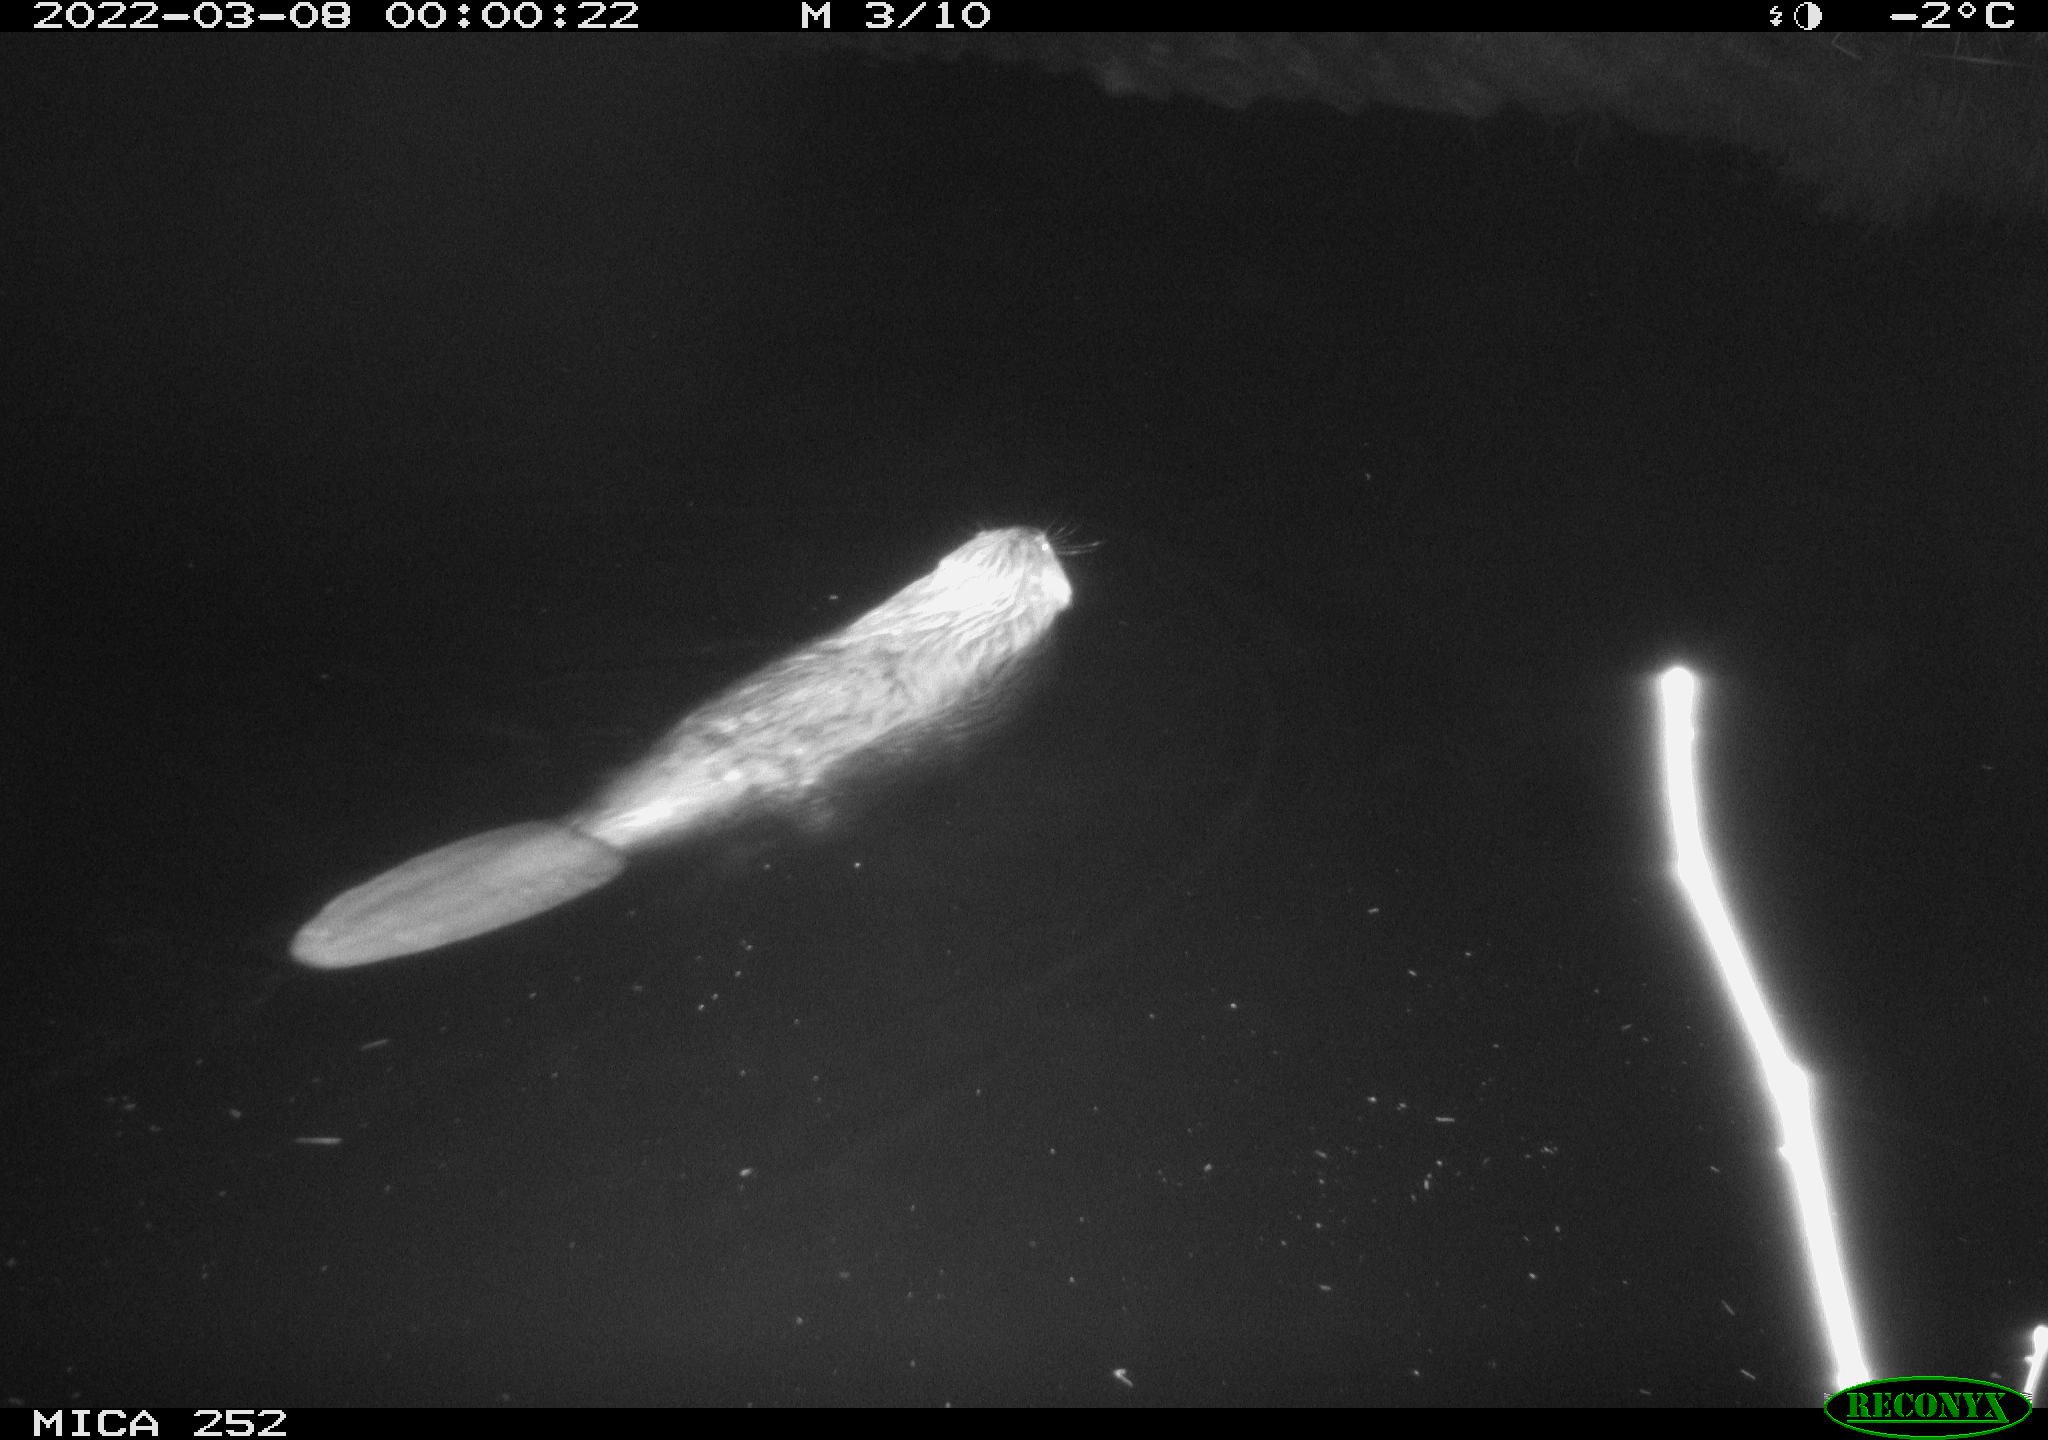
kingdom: Animalia
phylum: Chordata
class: Mammalia
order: Rodentia
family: Castoridae
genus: Castor
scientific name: Castor fiber
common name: Eurasian beaver
